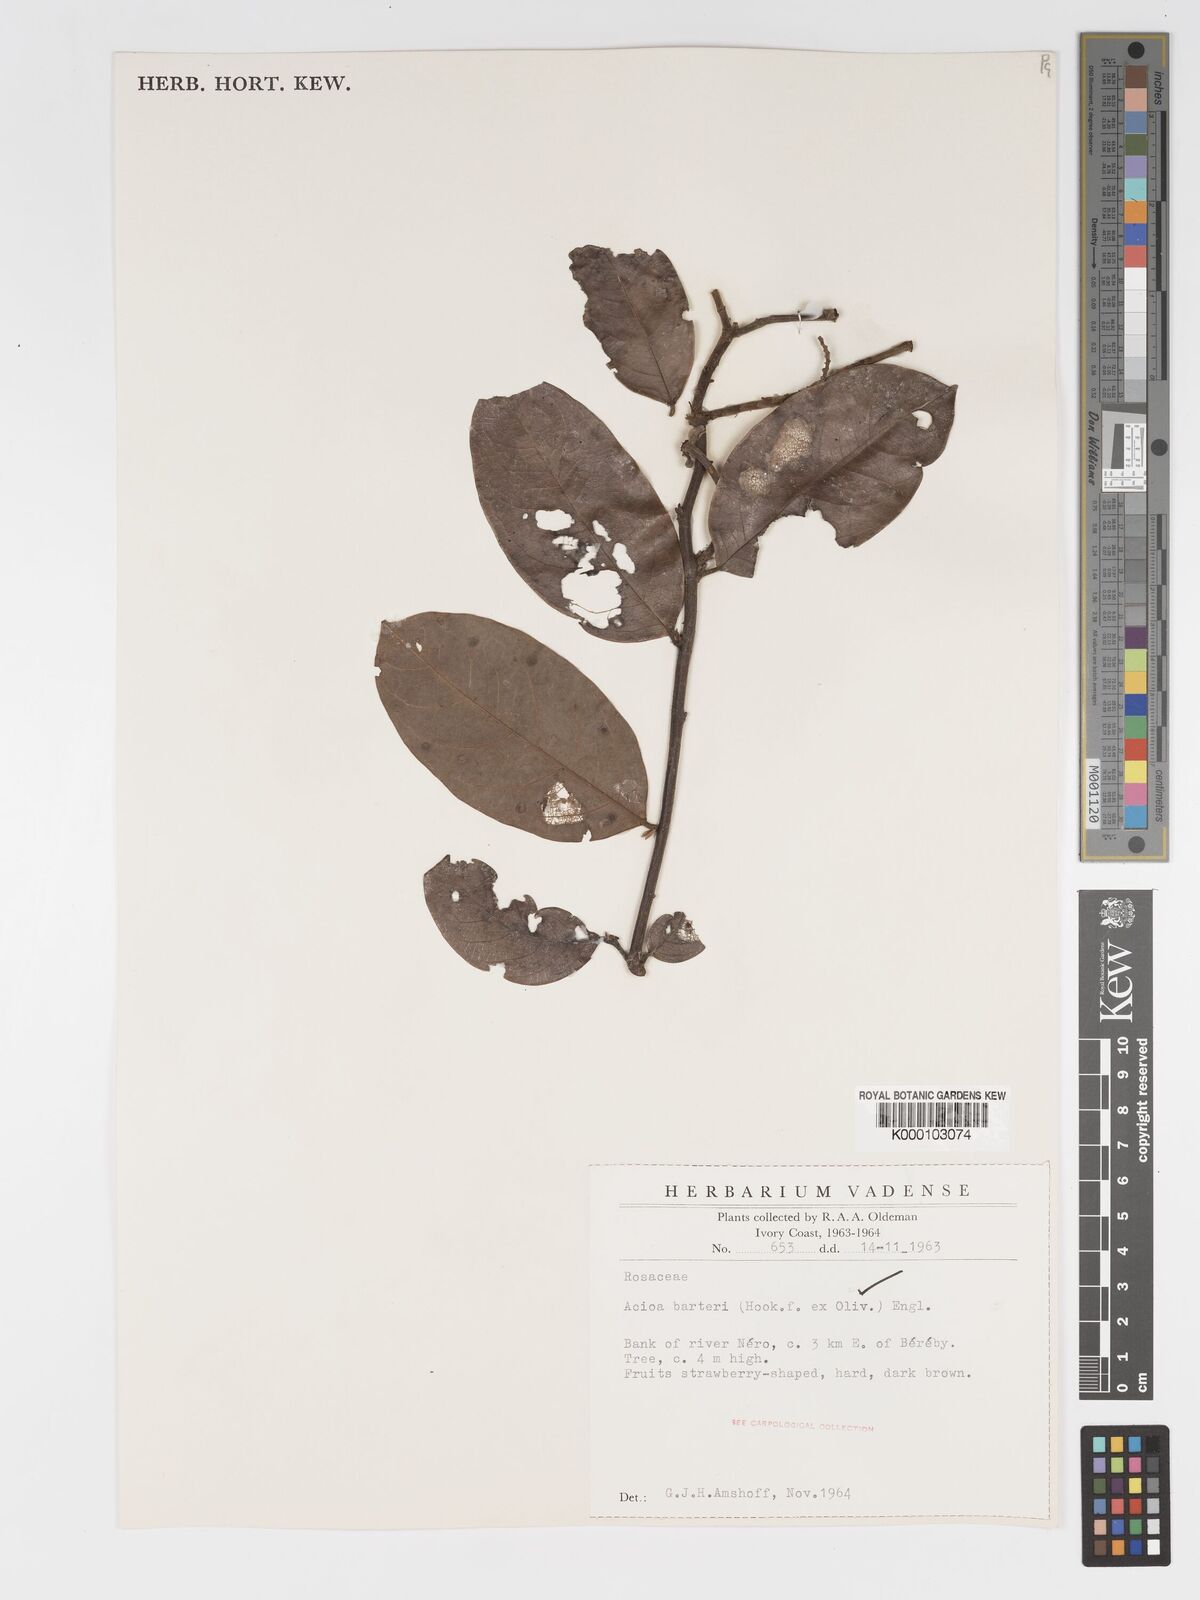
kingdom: Plantae
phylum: Tracheophyta
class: Magnoliopsida
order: Malpighiales
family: Chrysobalanaceae
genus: Dactyladenia
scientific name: Dactyladenia barteri
